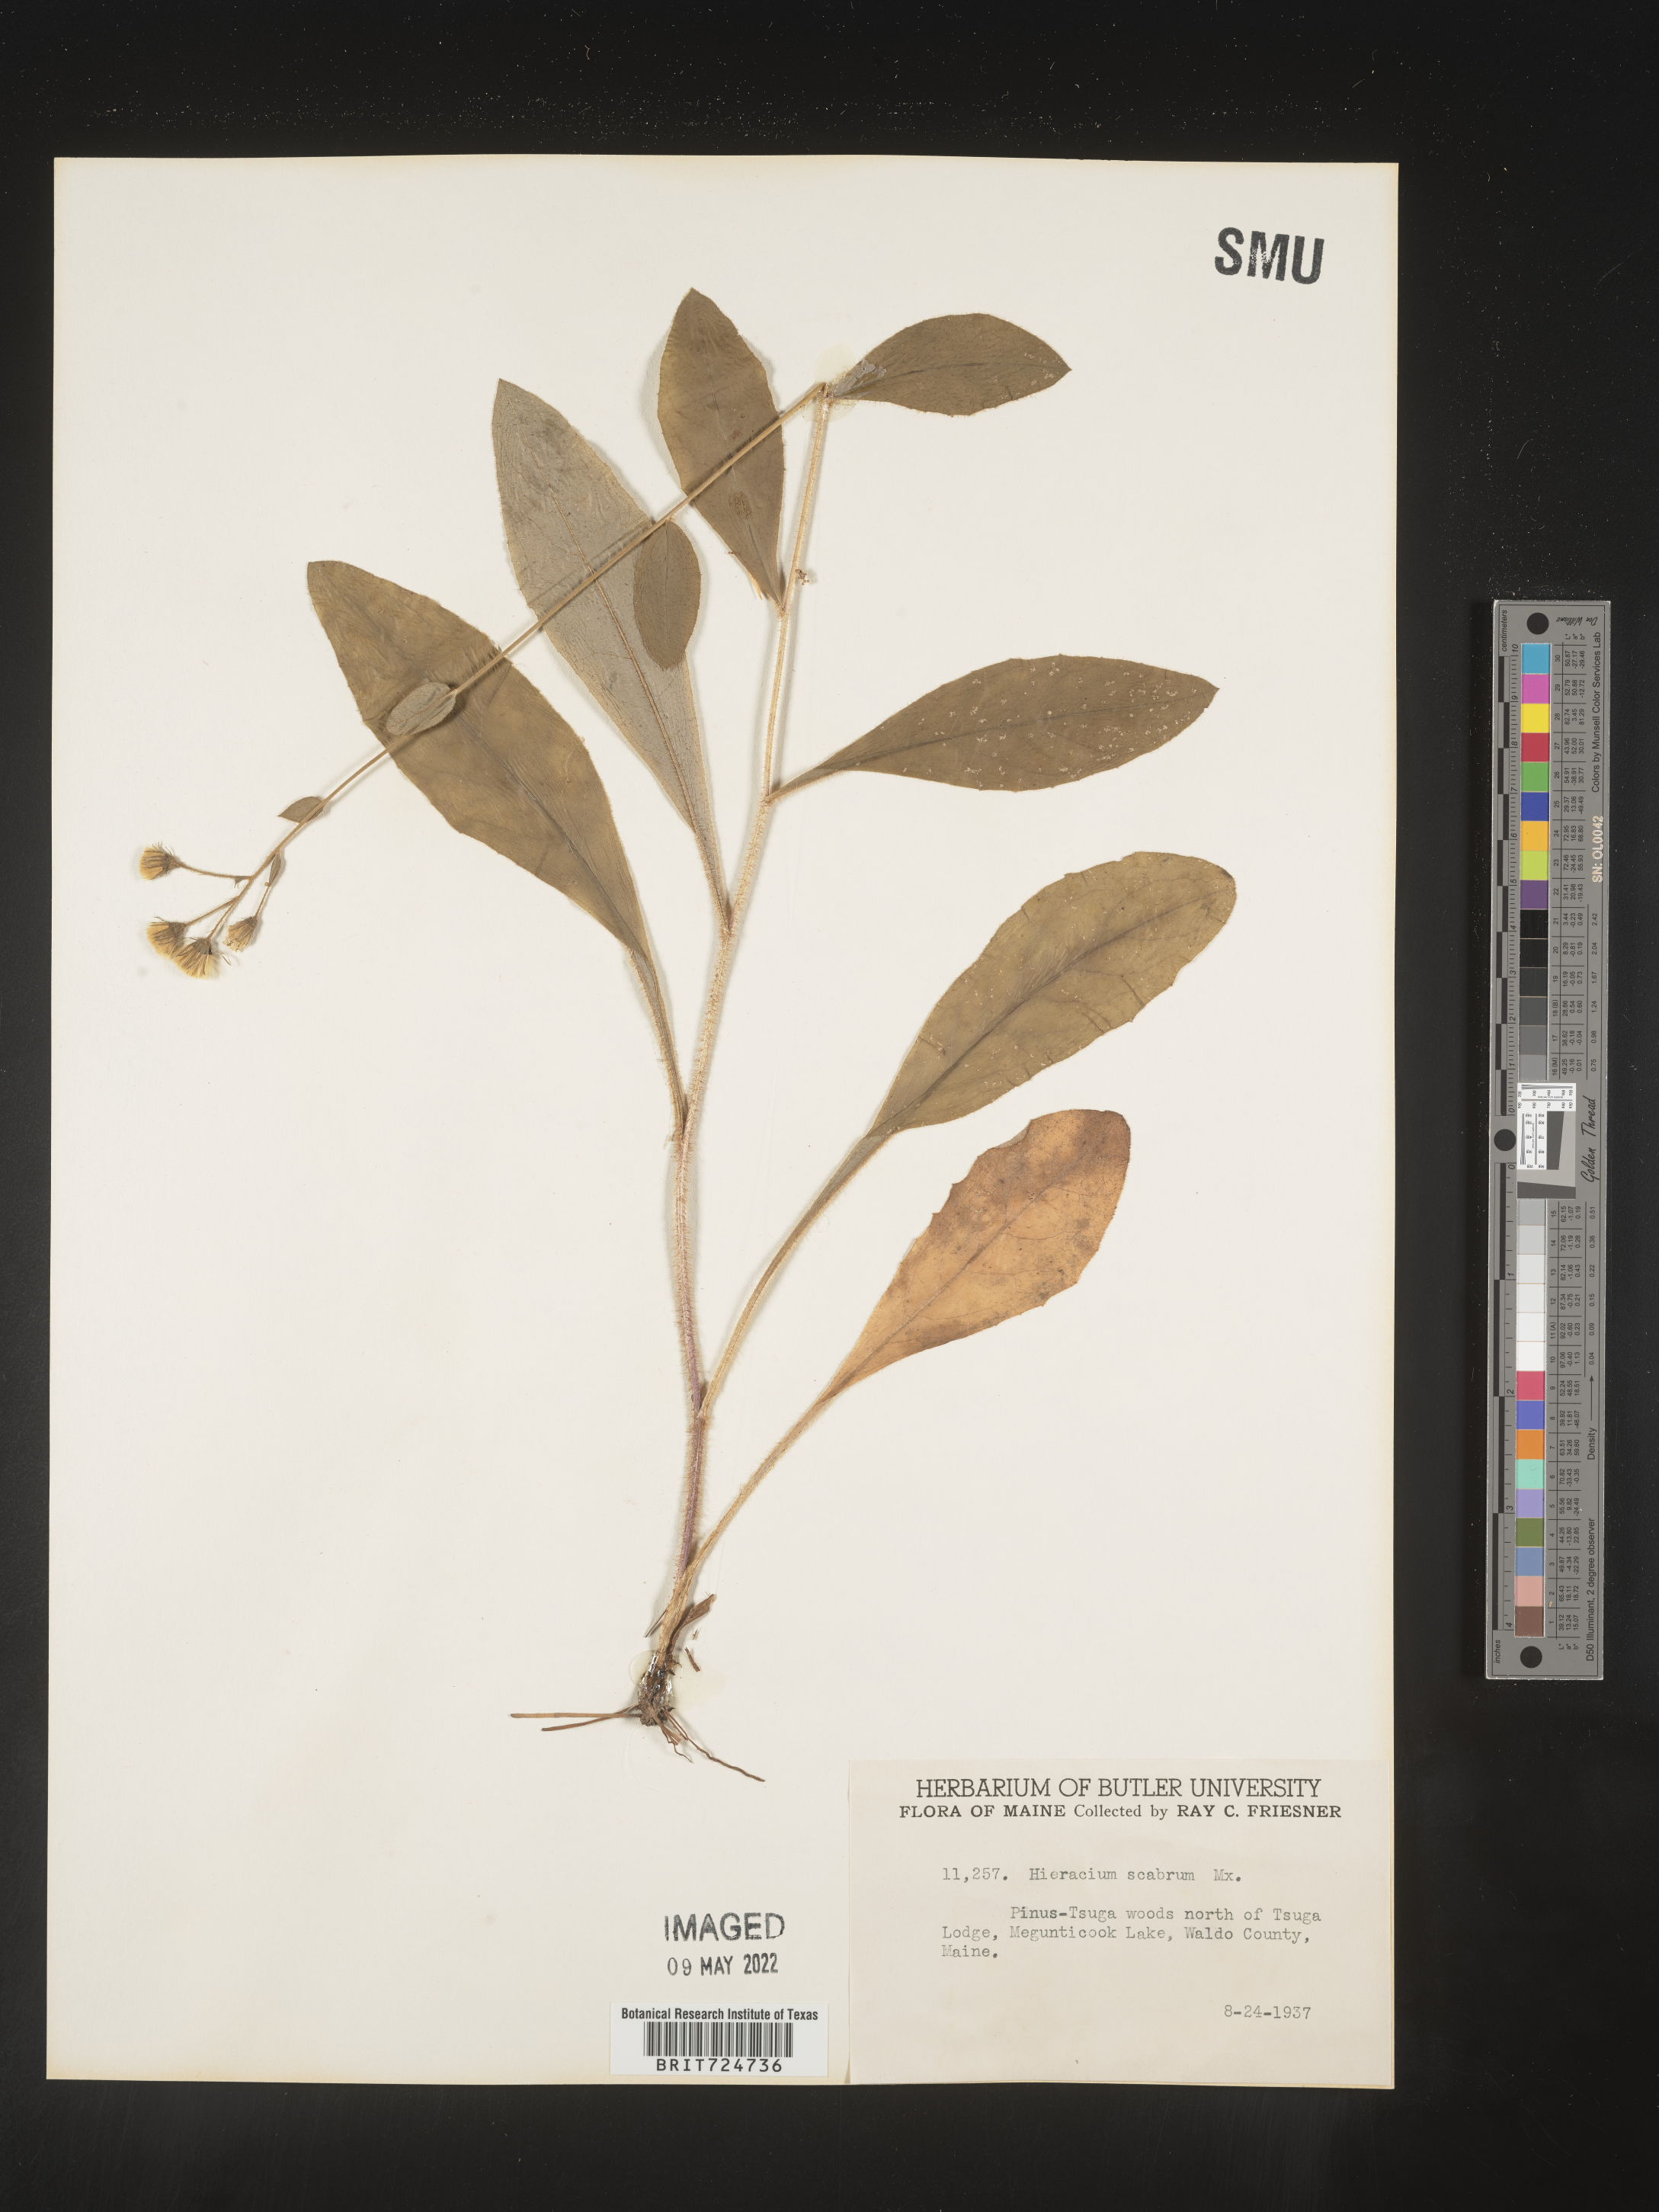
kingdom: Plantae
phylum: Tracheophyta
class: Magnoliopsida
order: Asterales
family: Asteraceae
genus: Hieracium
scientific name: Hieracium scabrum
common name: Rough hawkweed
